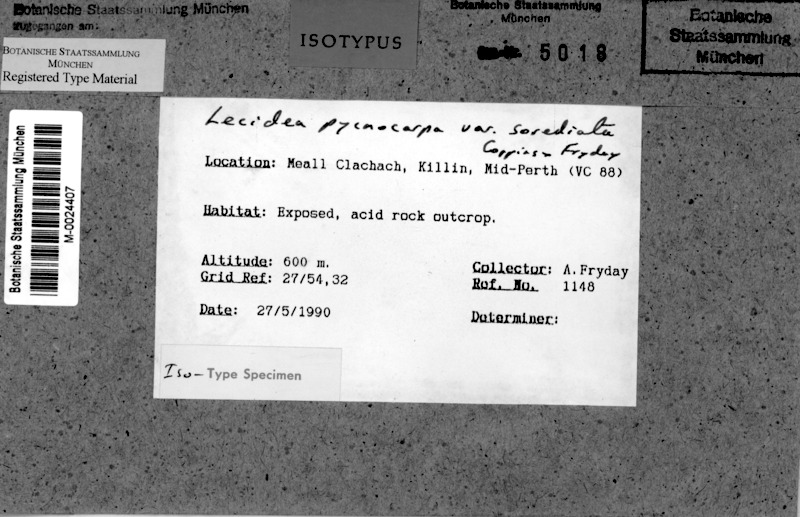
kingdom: Fungi
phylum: Ascomycota
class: Lecanoromycetes
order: Lecanorales
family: Lecanoraceae
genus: Miriquidica
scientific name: Miriquidica pycnocarpa
